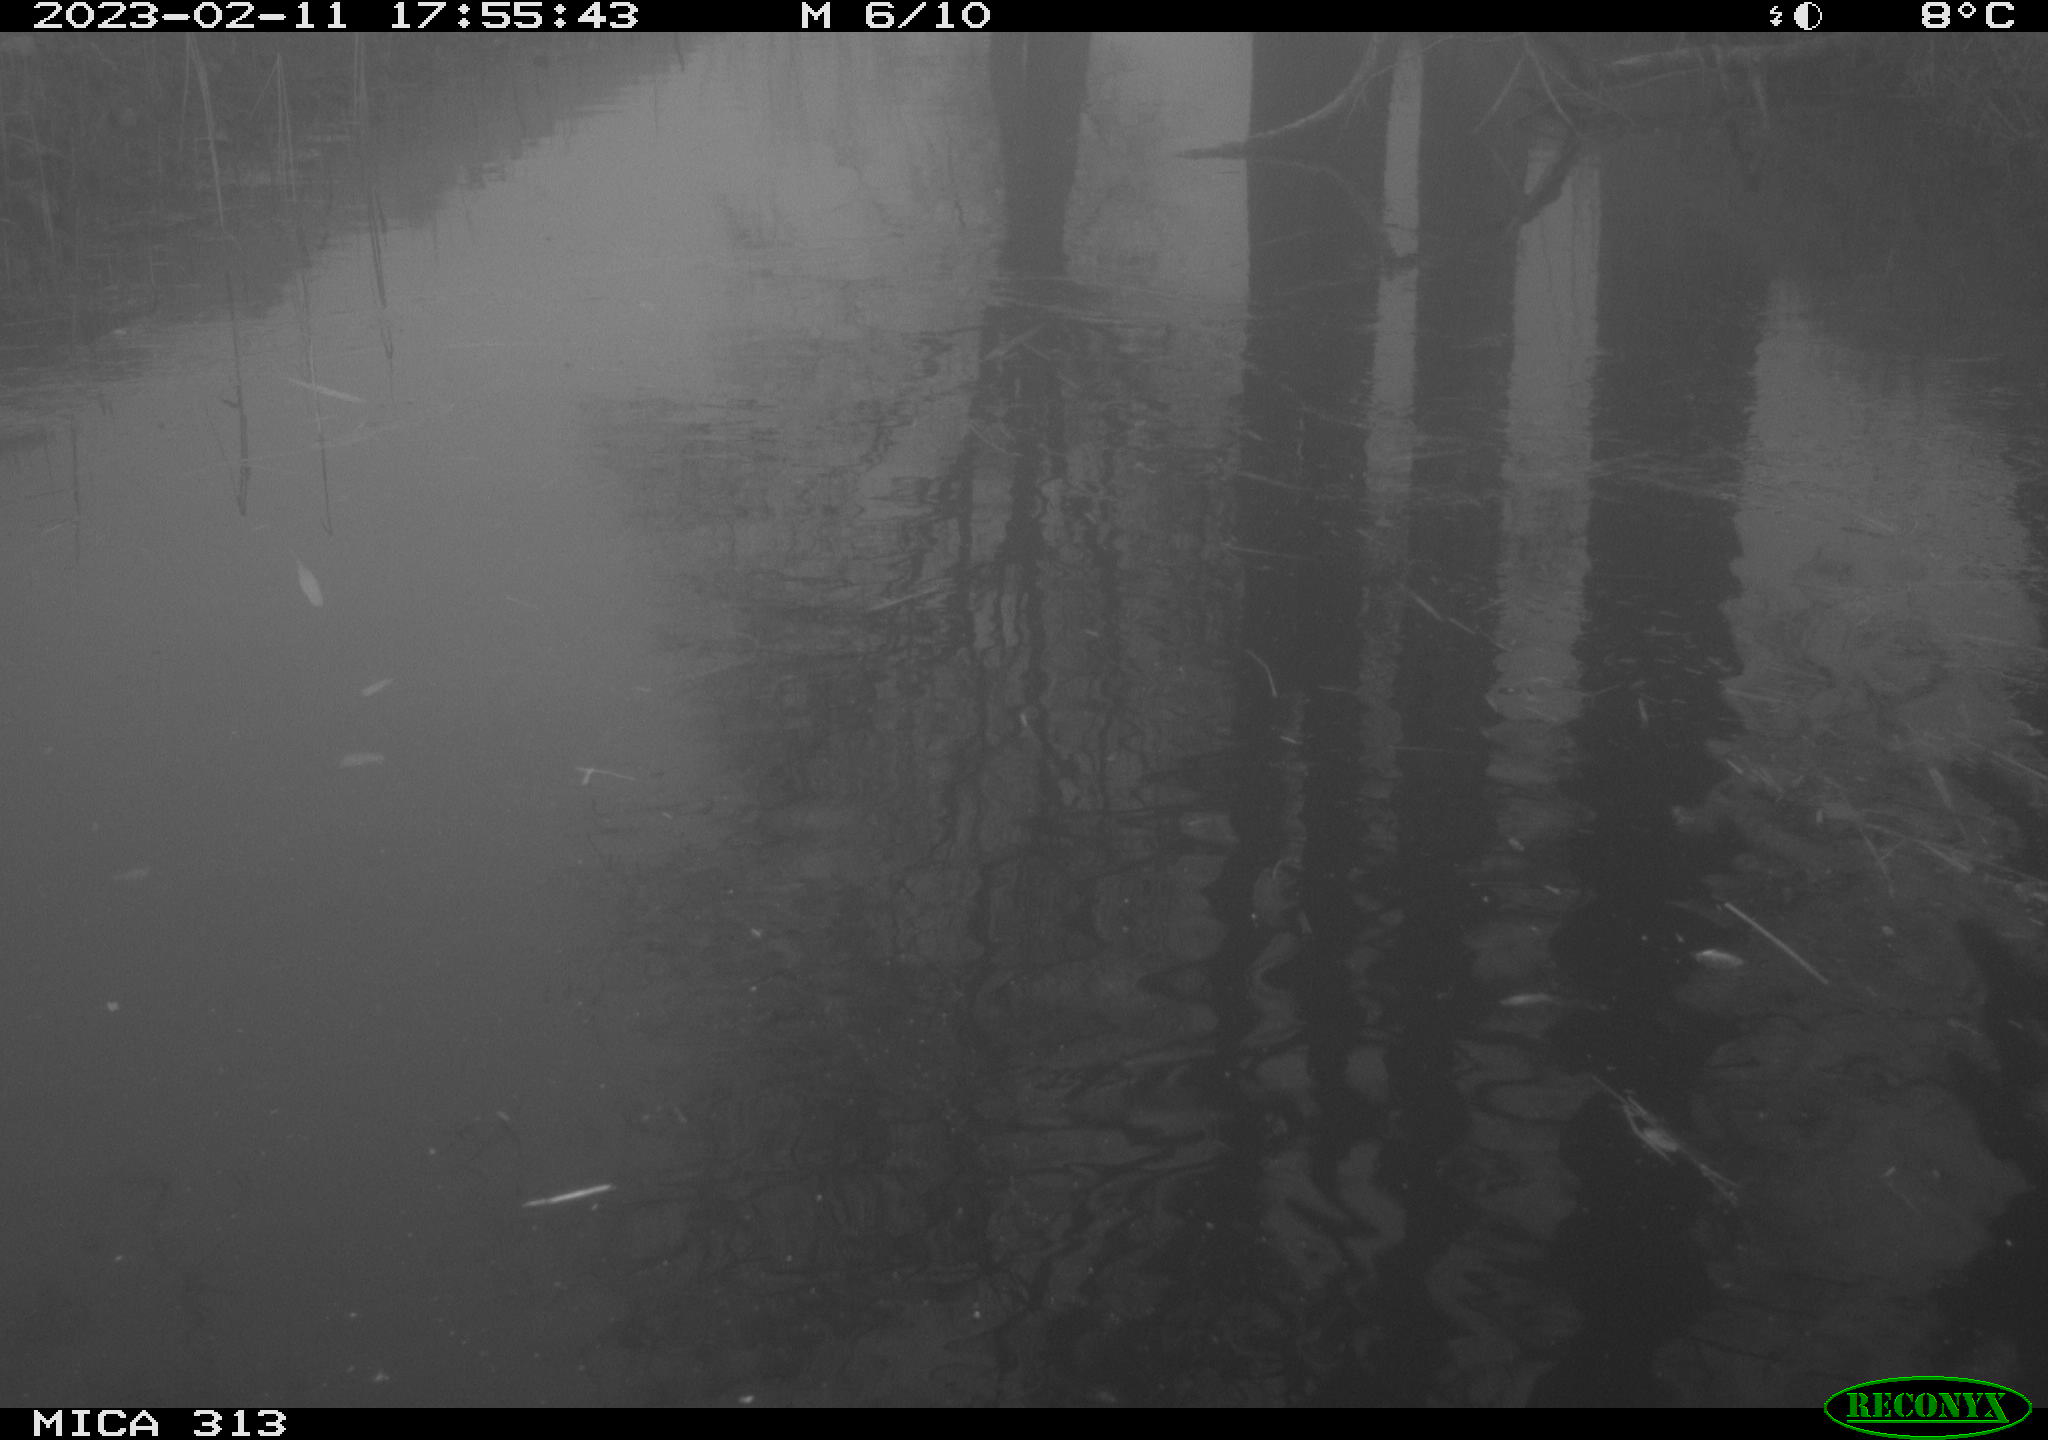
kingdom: Animalia
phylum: Chordata
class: Aves
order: Gruiformes
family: Rallidae
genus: Gallinula
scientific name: Gallinula chloropus
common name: Common moorhen
